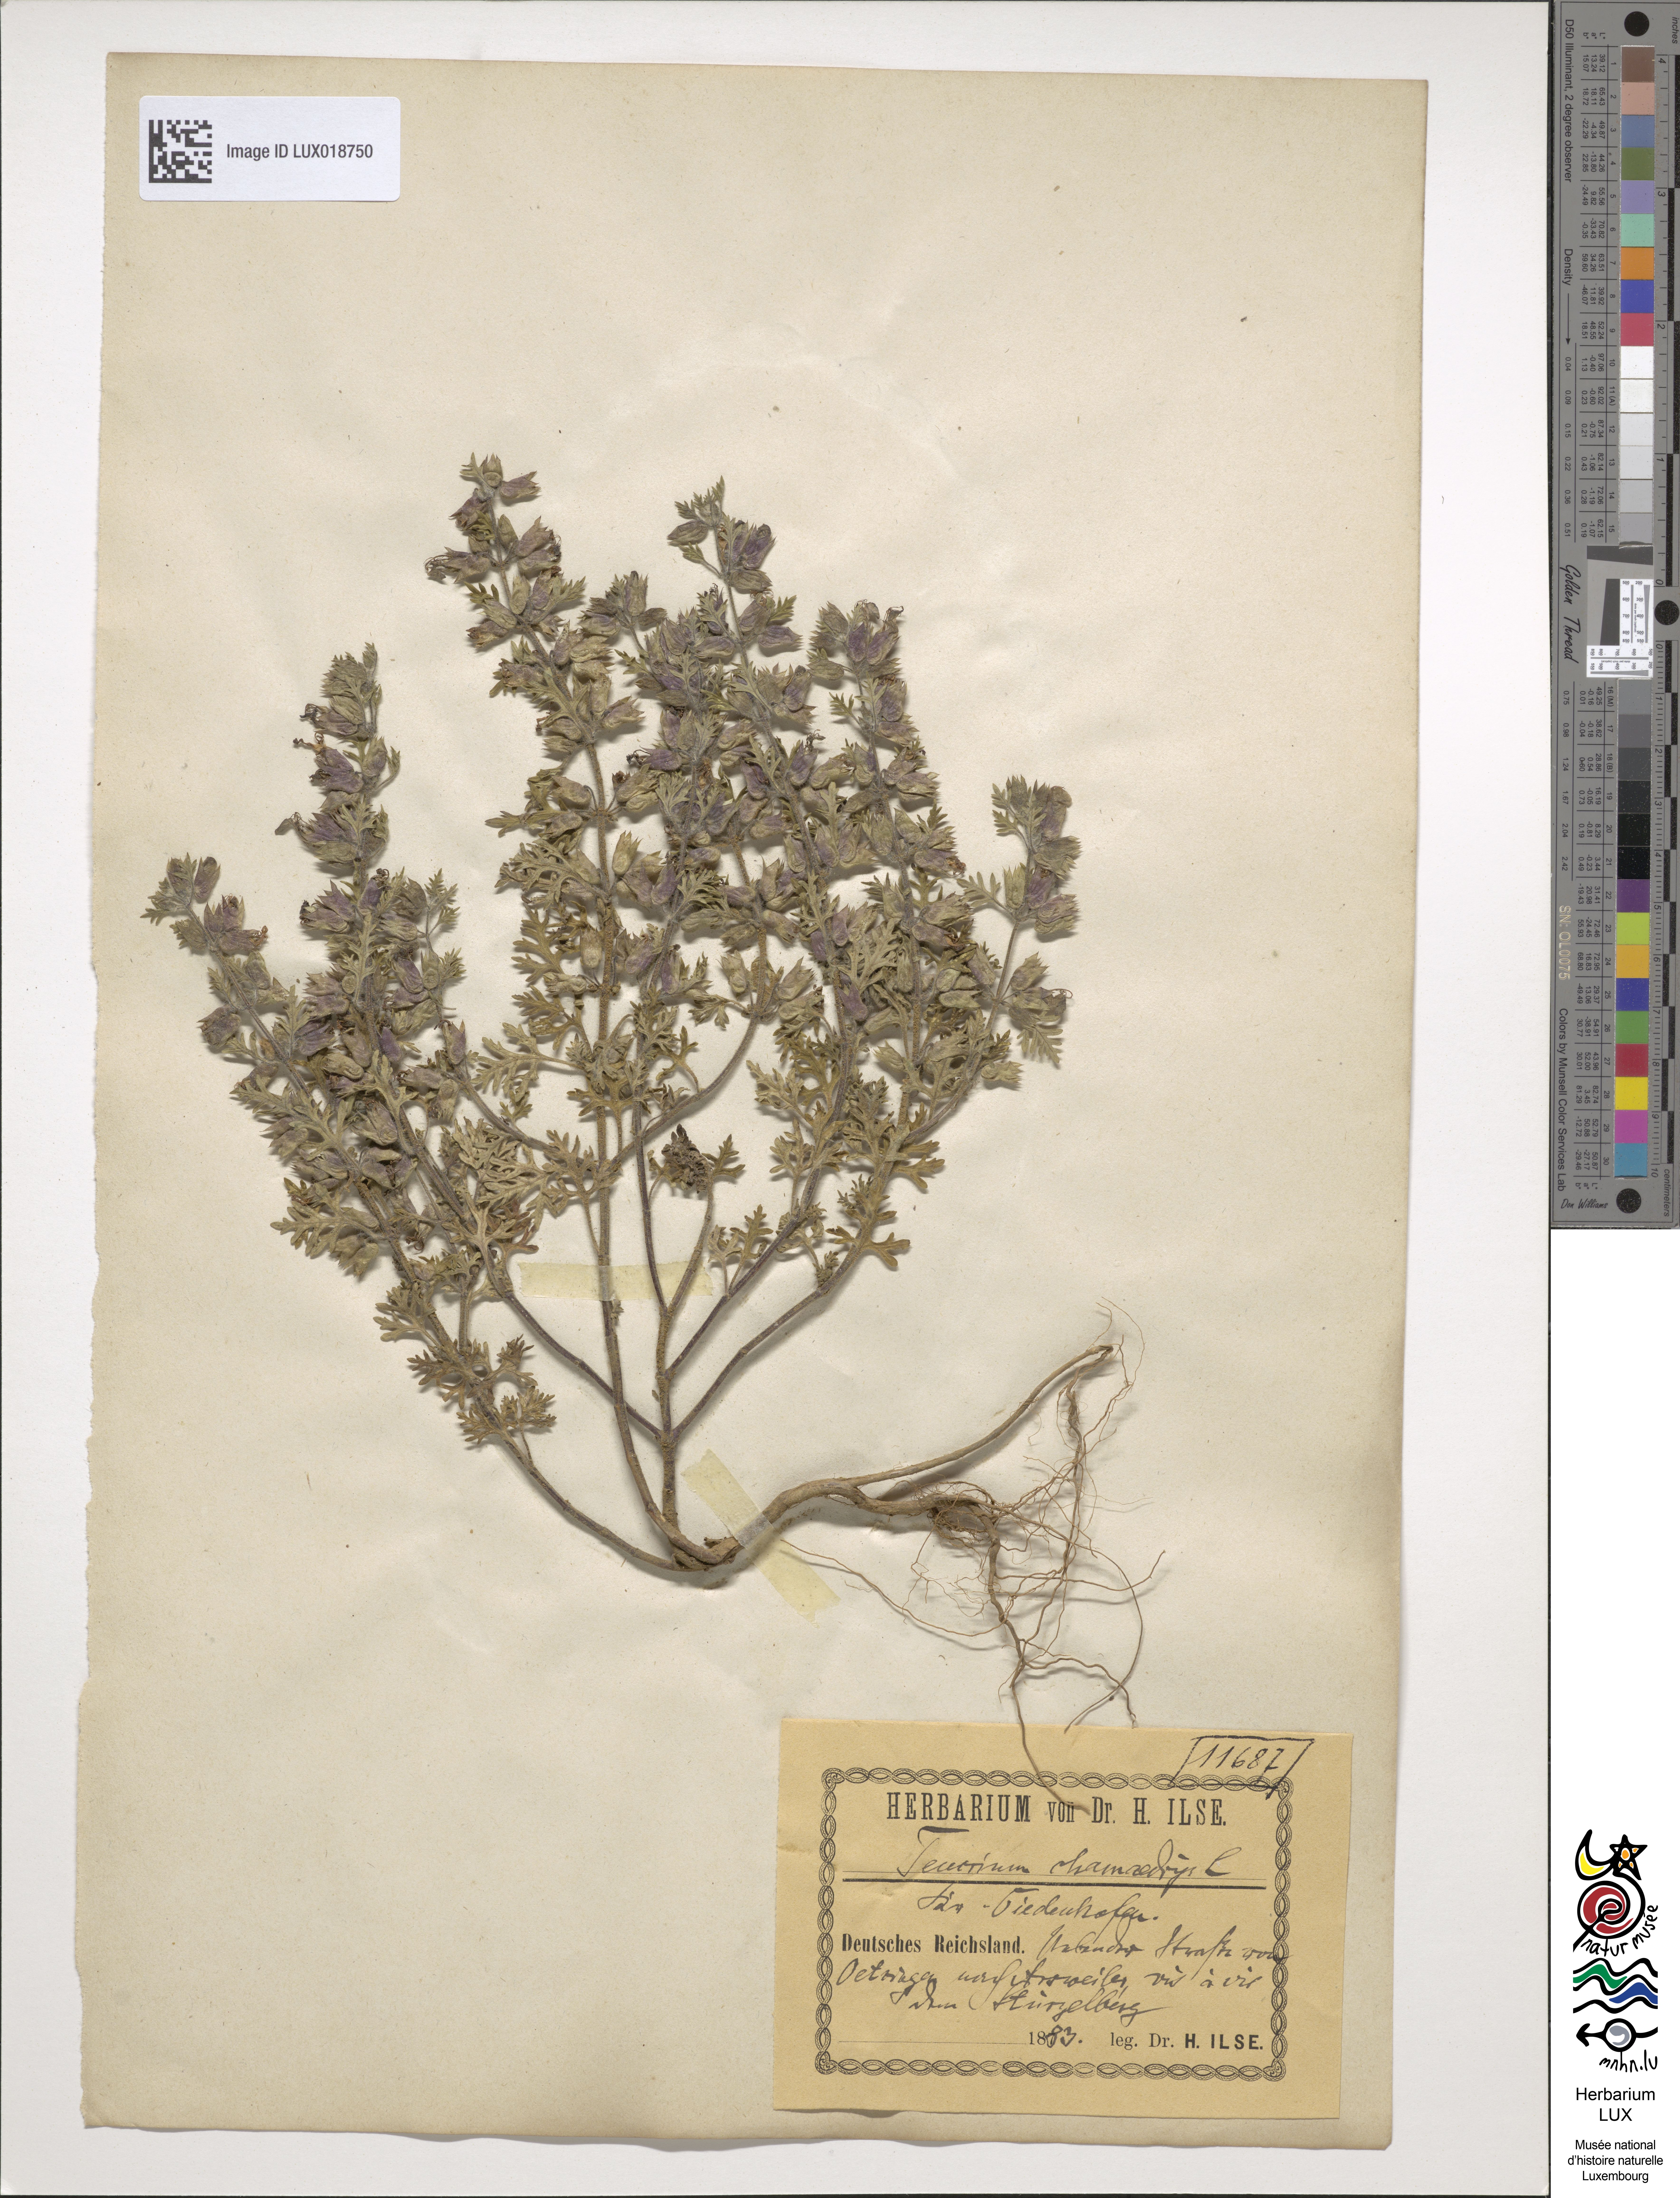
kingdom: Plantae
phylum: Tracheophyta
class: Magnoliopsida
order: Lamiales
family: Lamiaceae
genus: Teucrium
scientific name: Teucrium chamaedrys
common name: Wall germander
